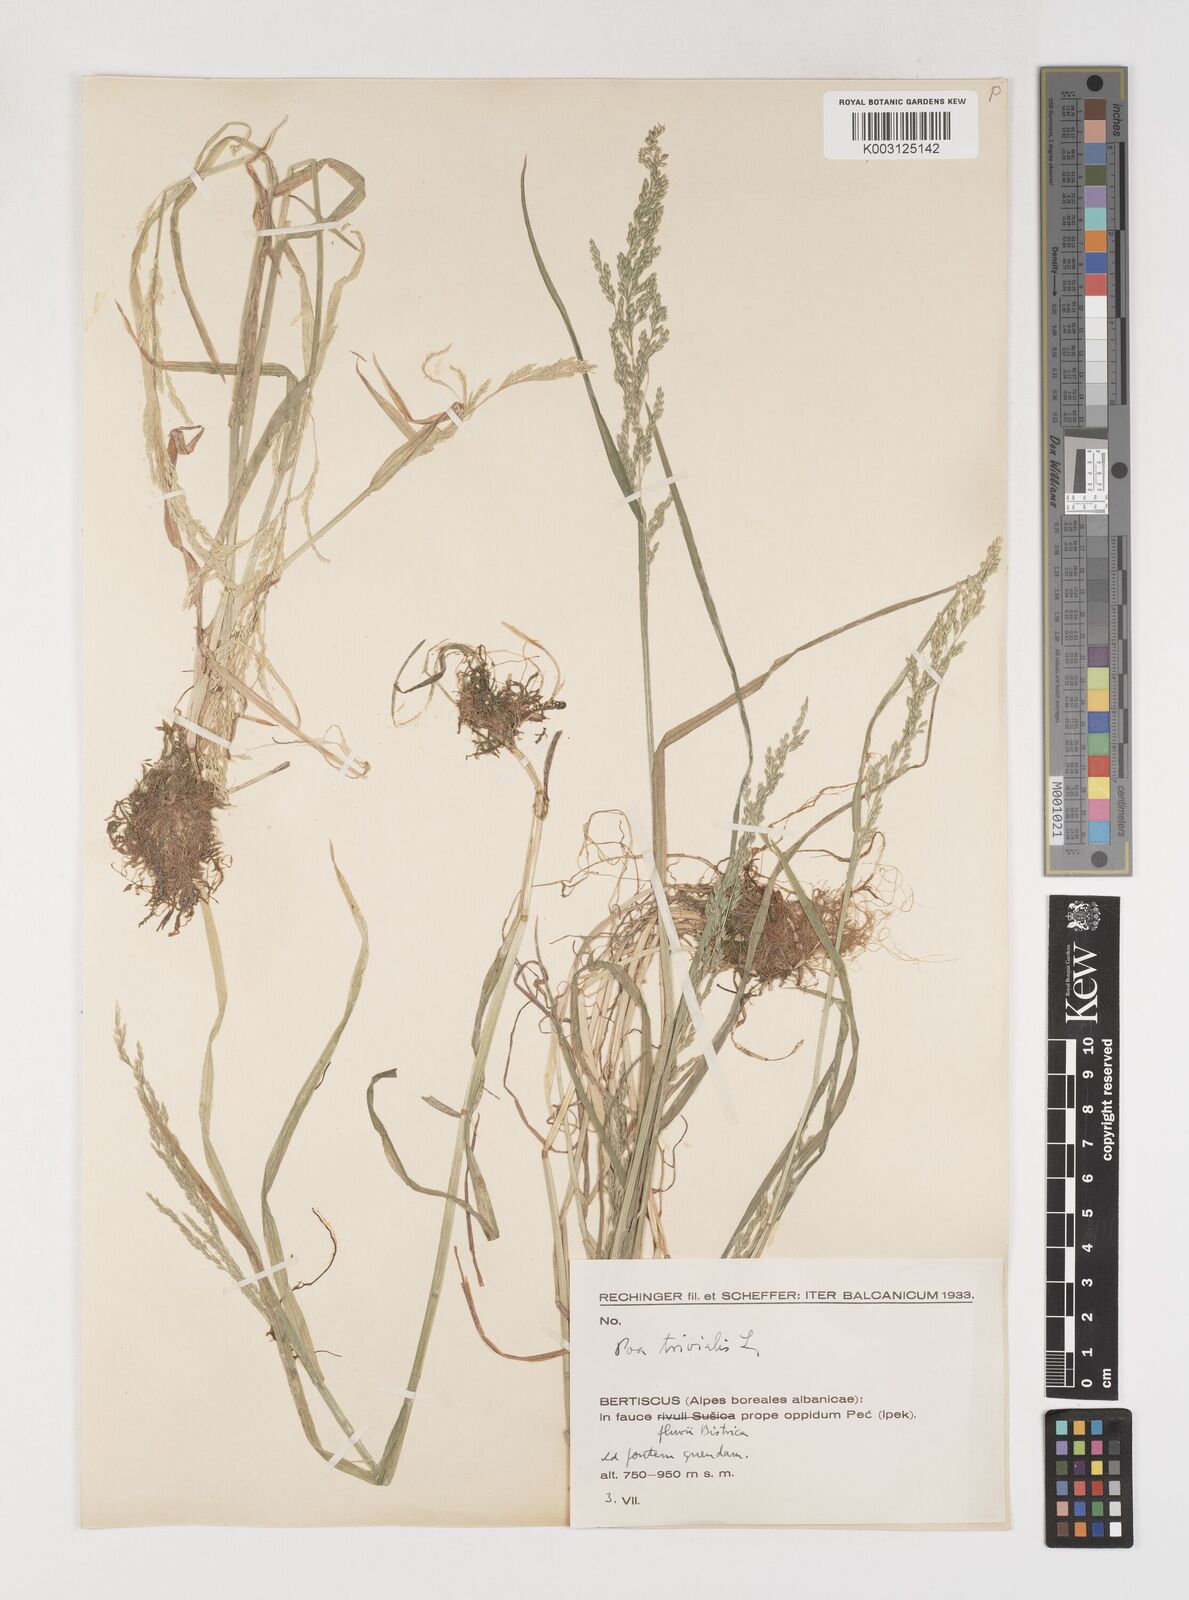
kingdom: Plantae
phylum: Tracheophyta
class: Liliopsida
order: Poales
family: Poaceae
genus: Poa
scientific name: Poa trivialis
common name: Rough bluegrass
